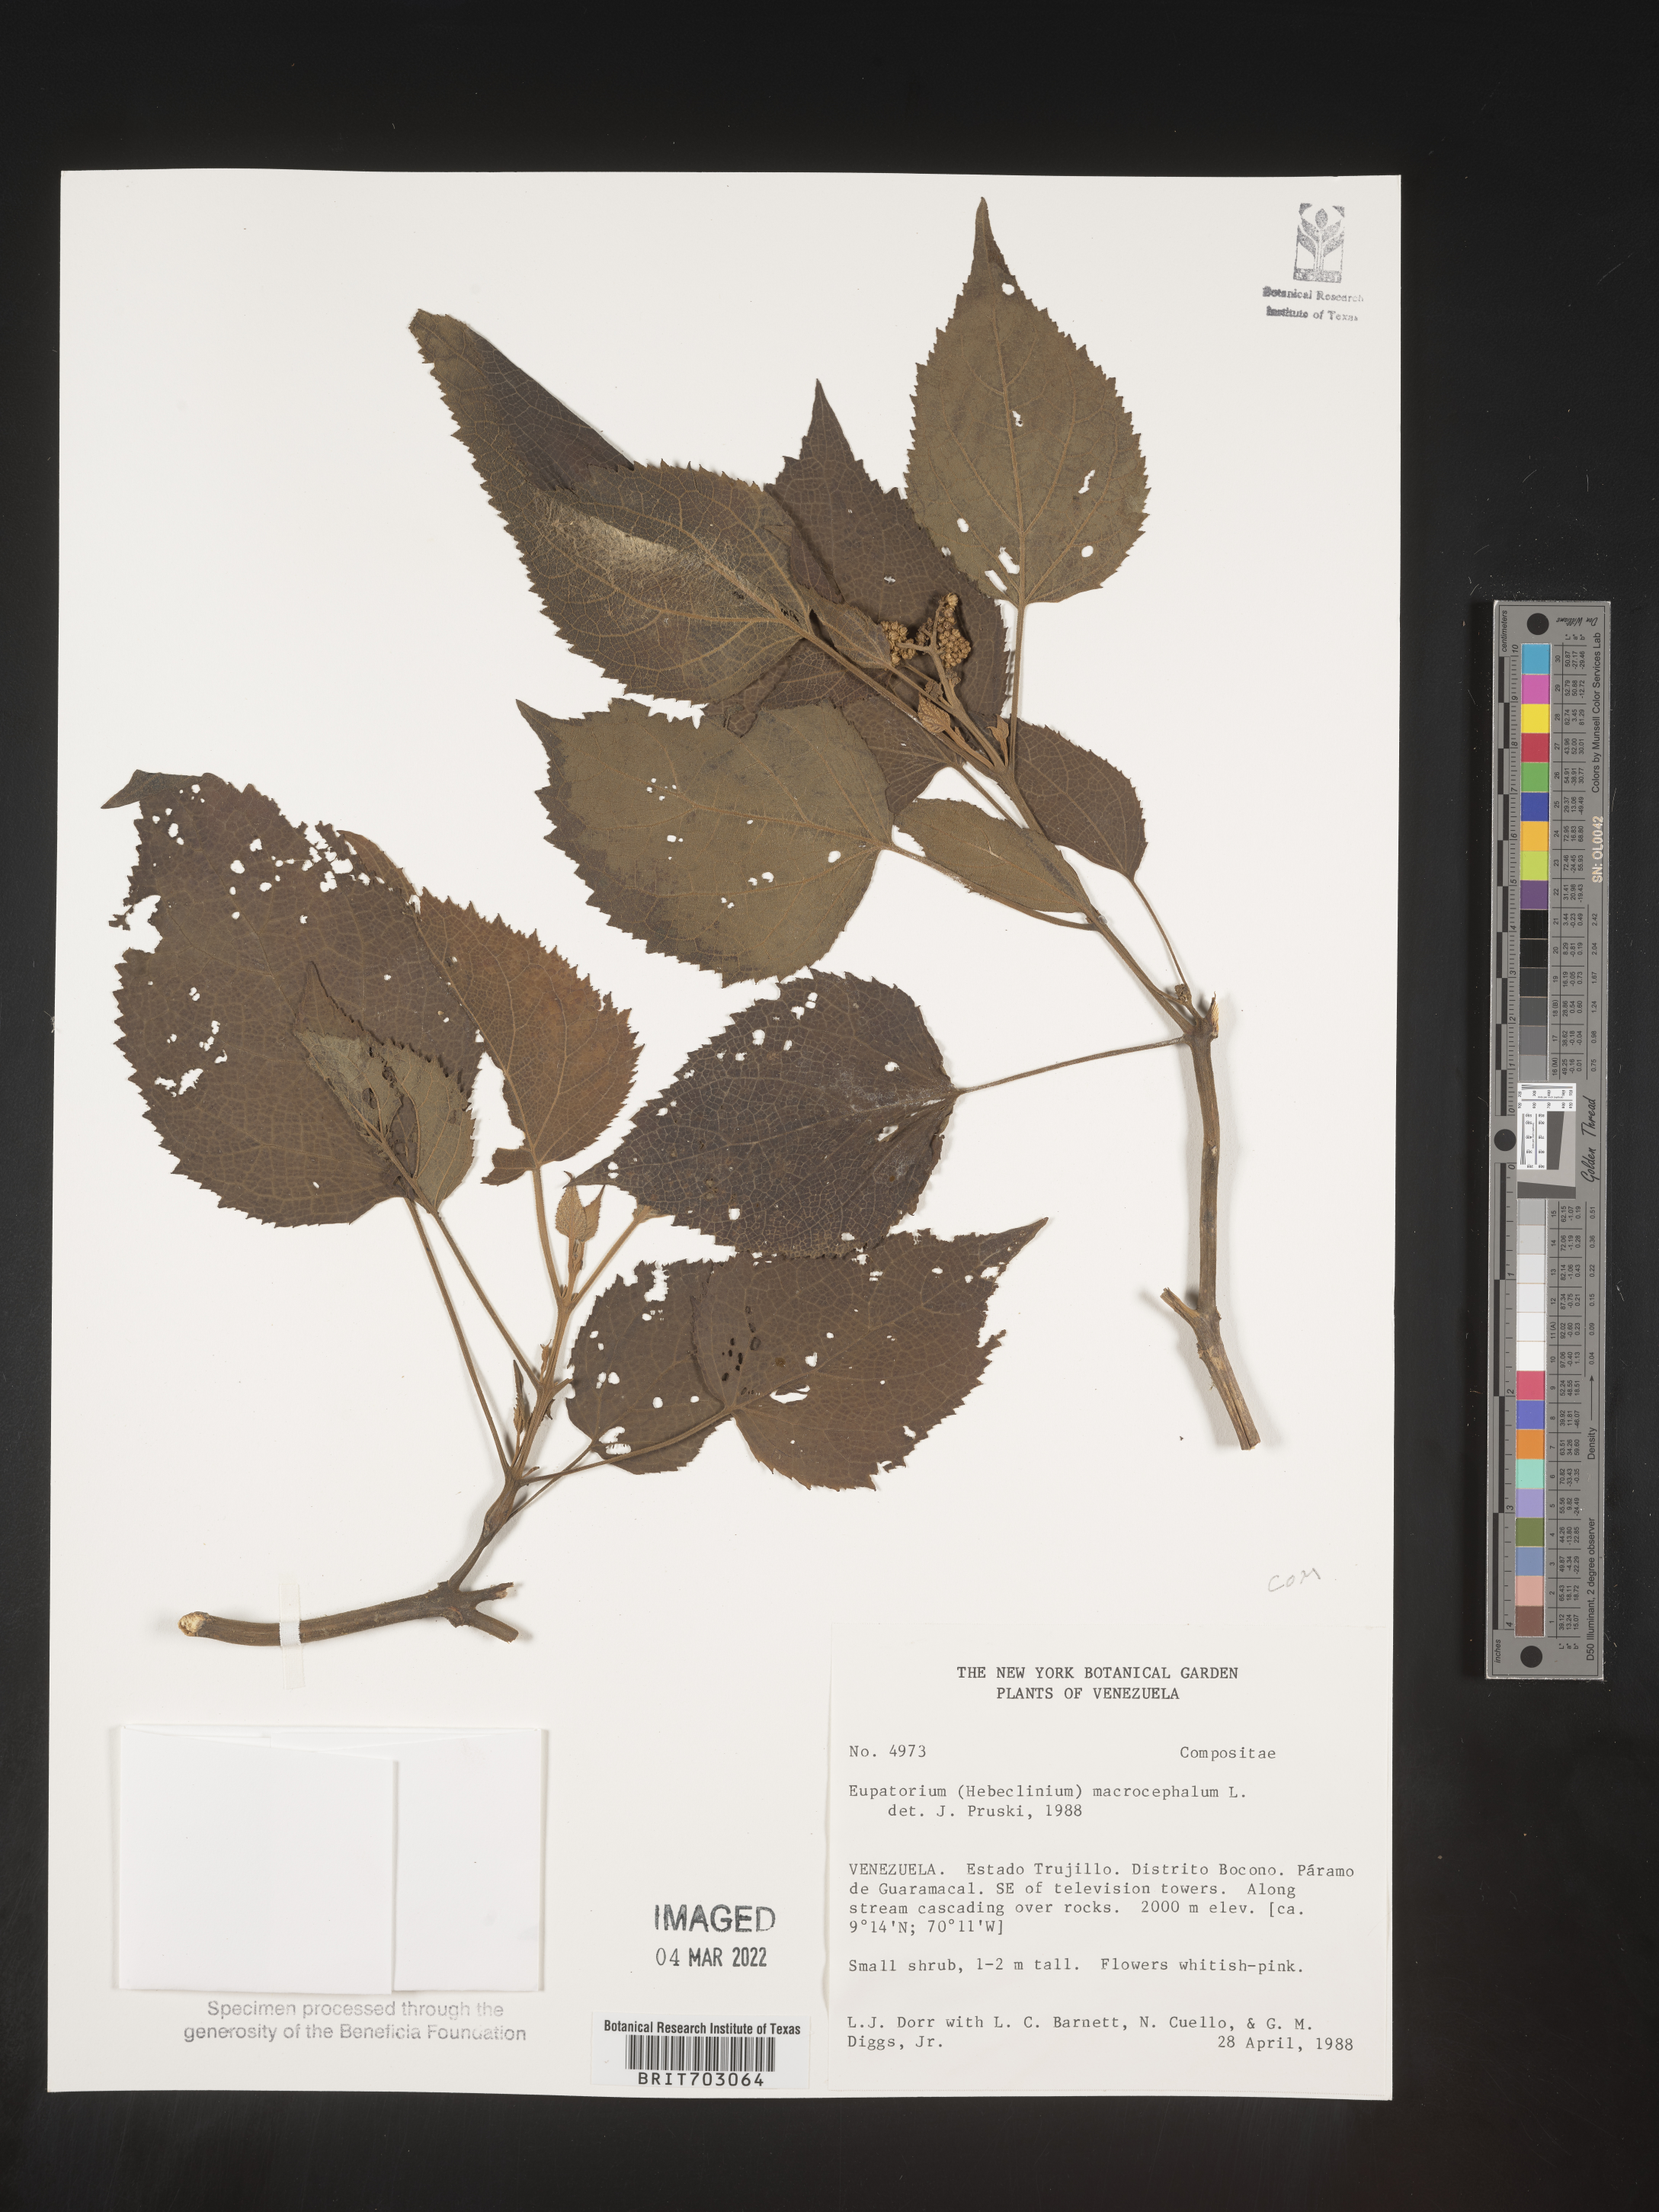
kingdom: Plantae
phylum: Tracheophyta
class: Magnoliopsida
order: Asterales
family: Asteraceae
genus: Eupatorium
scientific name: Eupatorium
